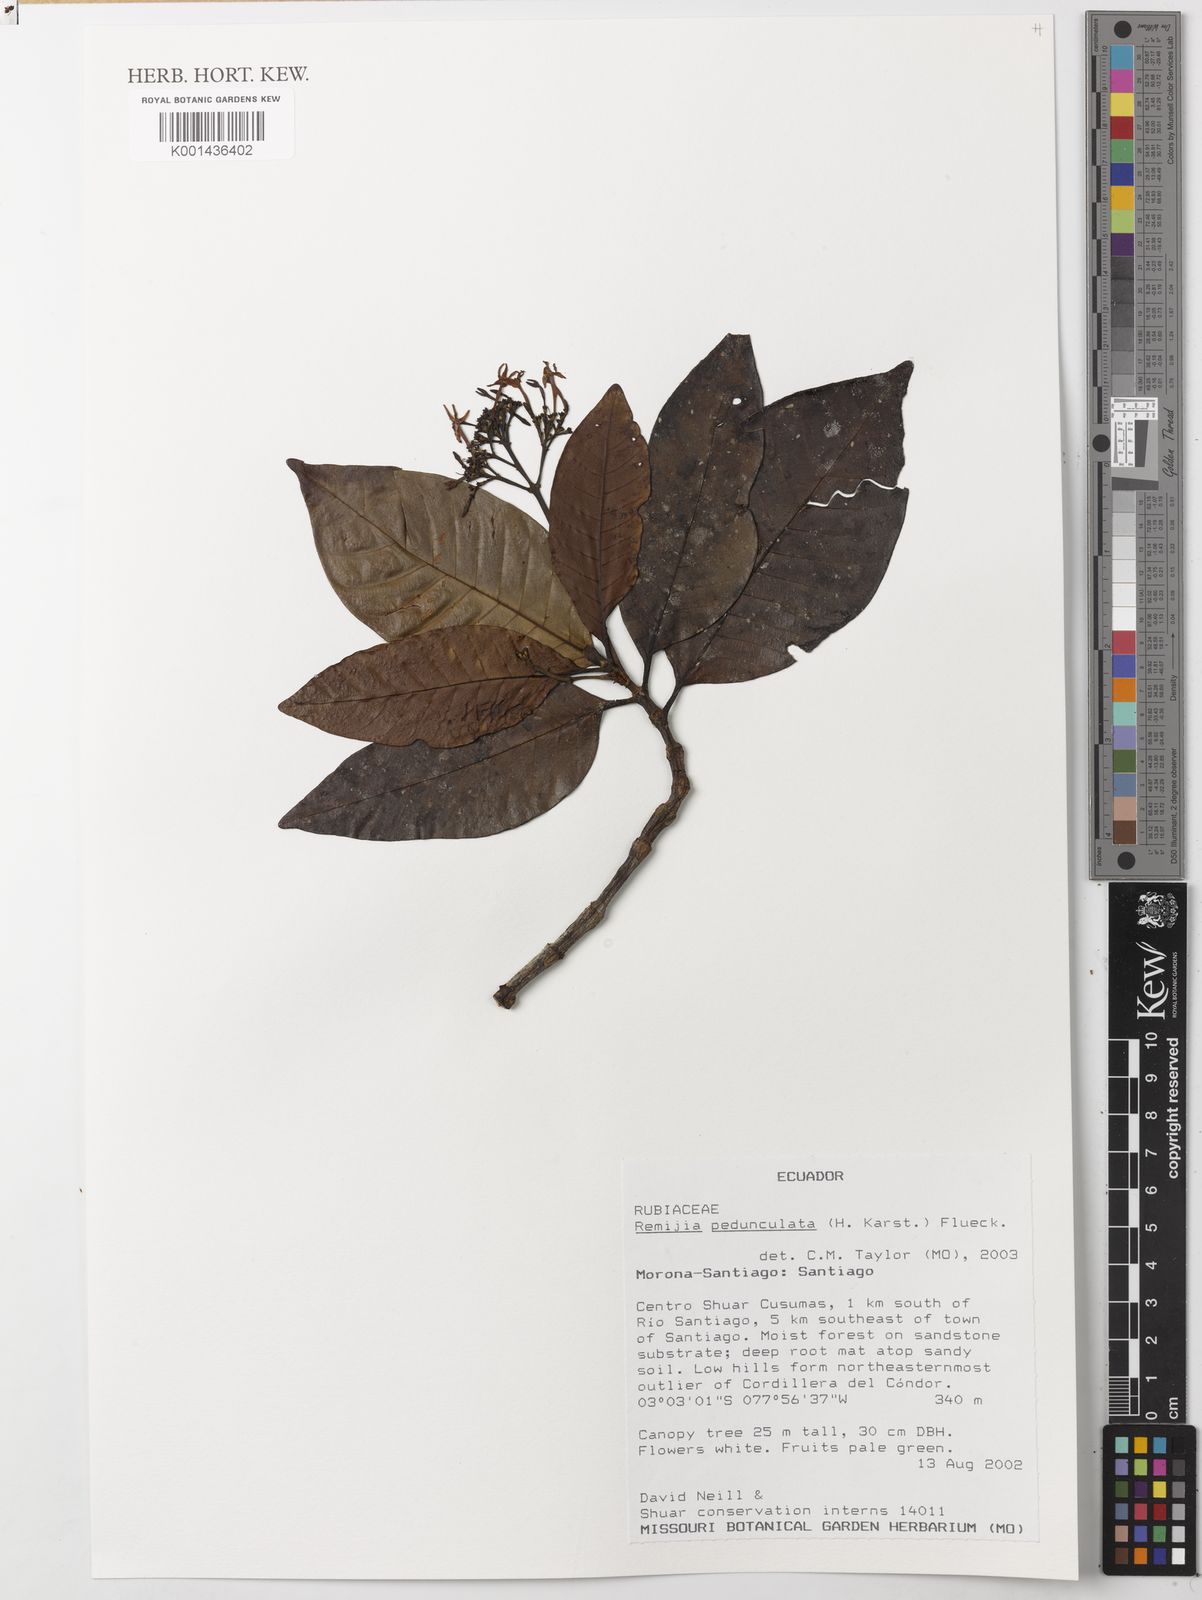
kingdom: Plantae
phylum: Tracheophyta
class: Magnoliopsida
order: Gentianales
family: Rubiaceae
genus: Remijia
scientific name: Remijia
